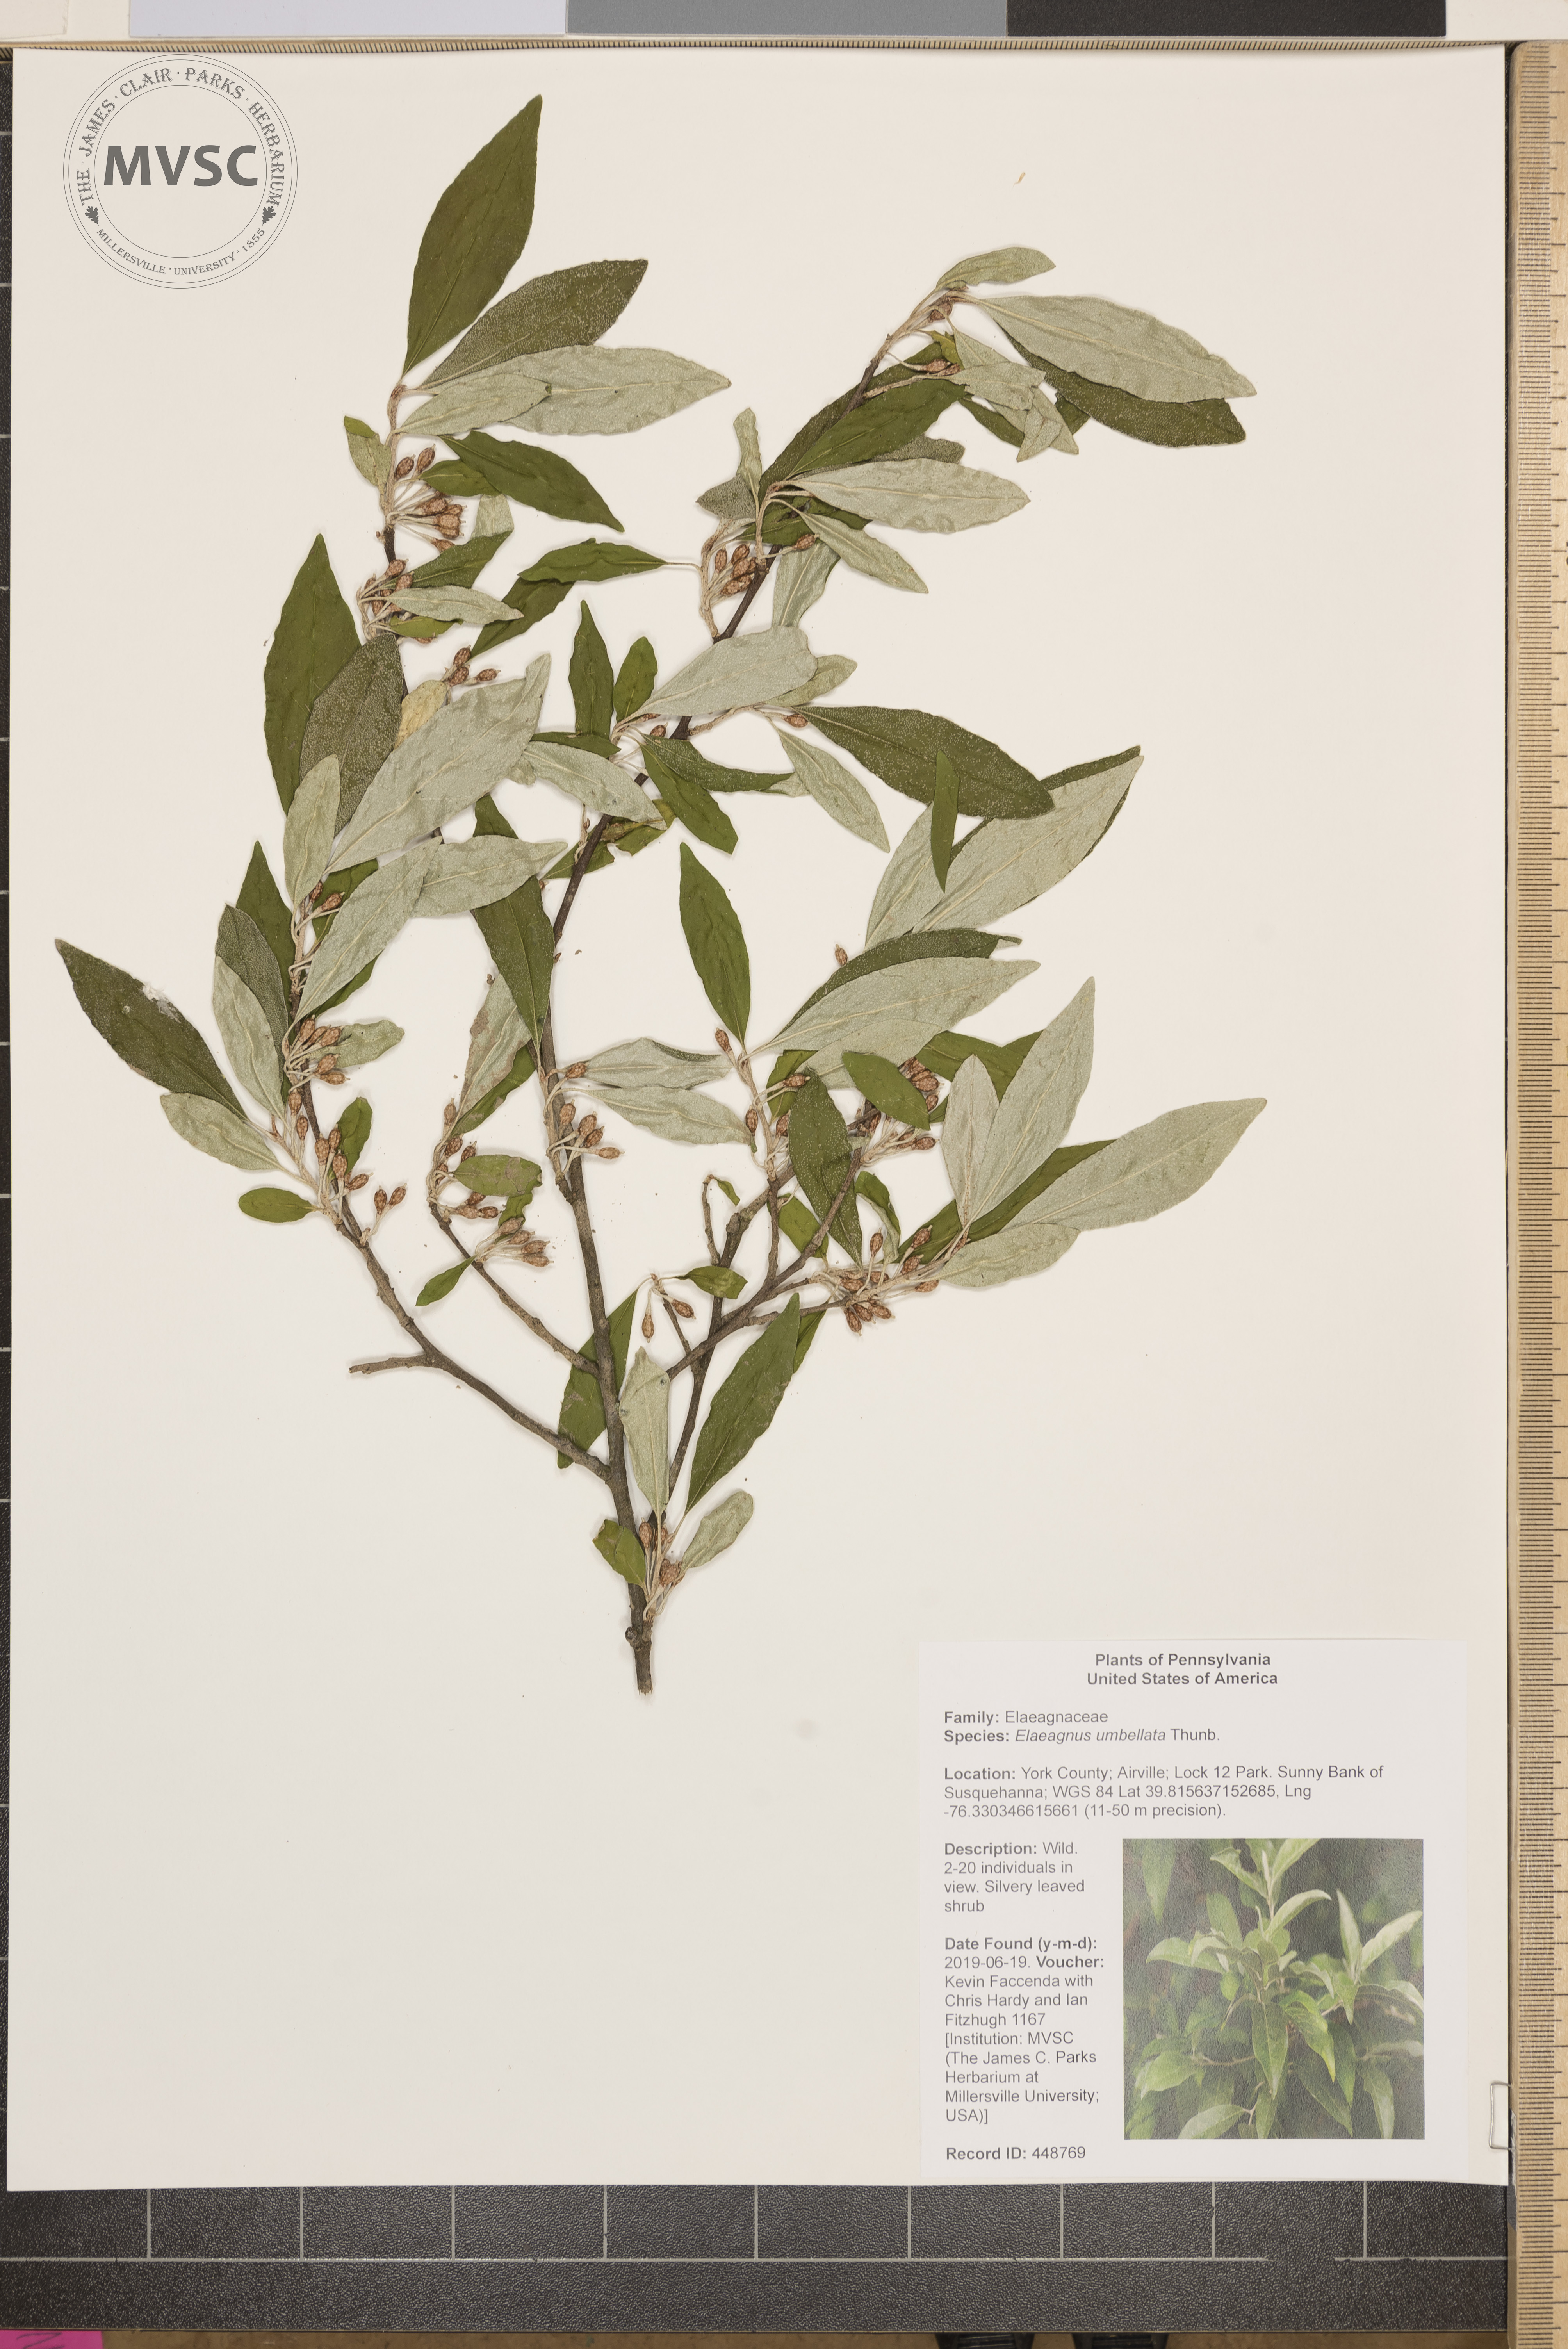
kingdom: Plantae
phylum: Tracheophyta
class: Magnoliopsida
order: Rosales
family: Elaeagnaceae
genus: Elaeagnus
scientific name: Elaeagnus umbellata
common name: Autumn olive
